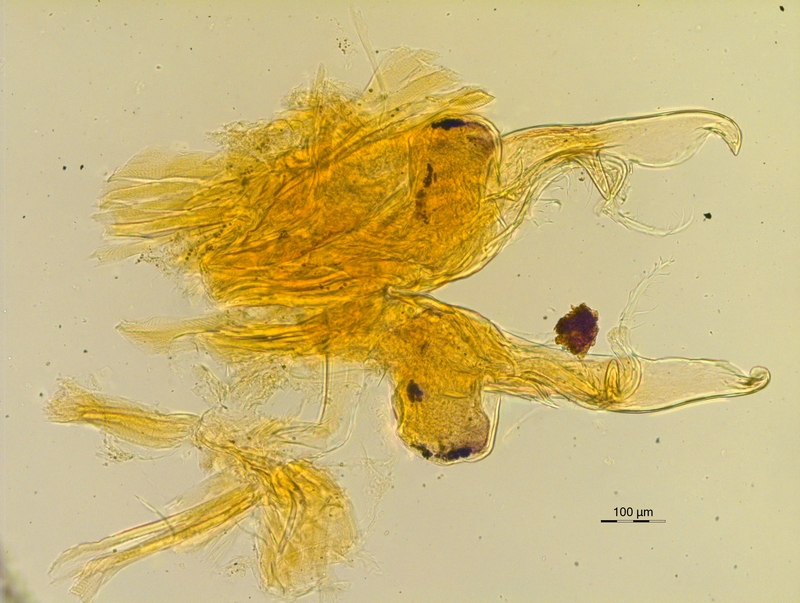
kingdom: Animalia
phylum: Arthropoda
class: Diplopoda
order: Chordeumatida
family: Chordeumatidae
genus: Mycogona
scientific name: Mycogona germanica
